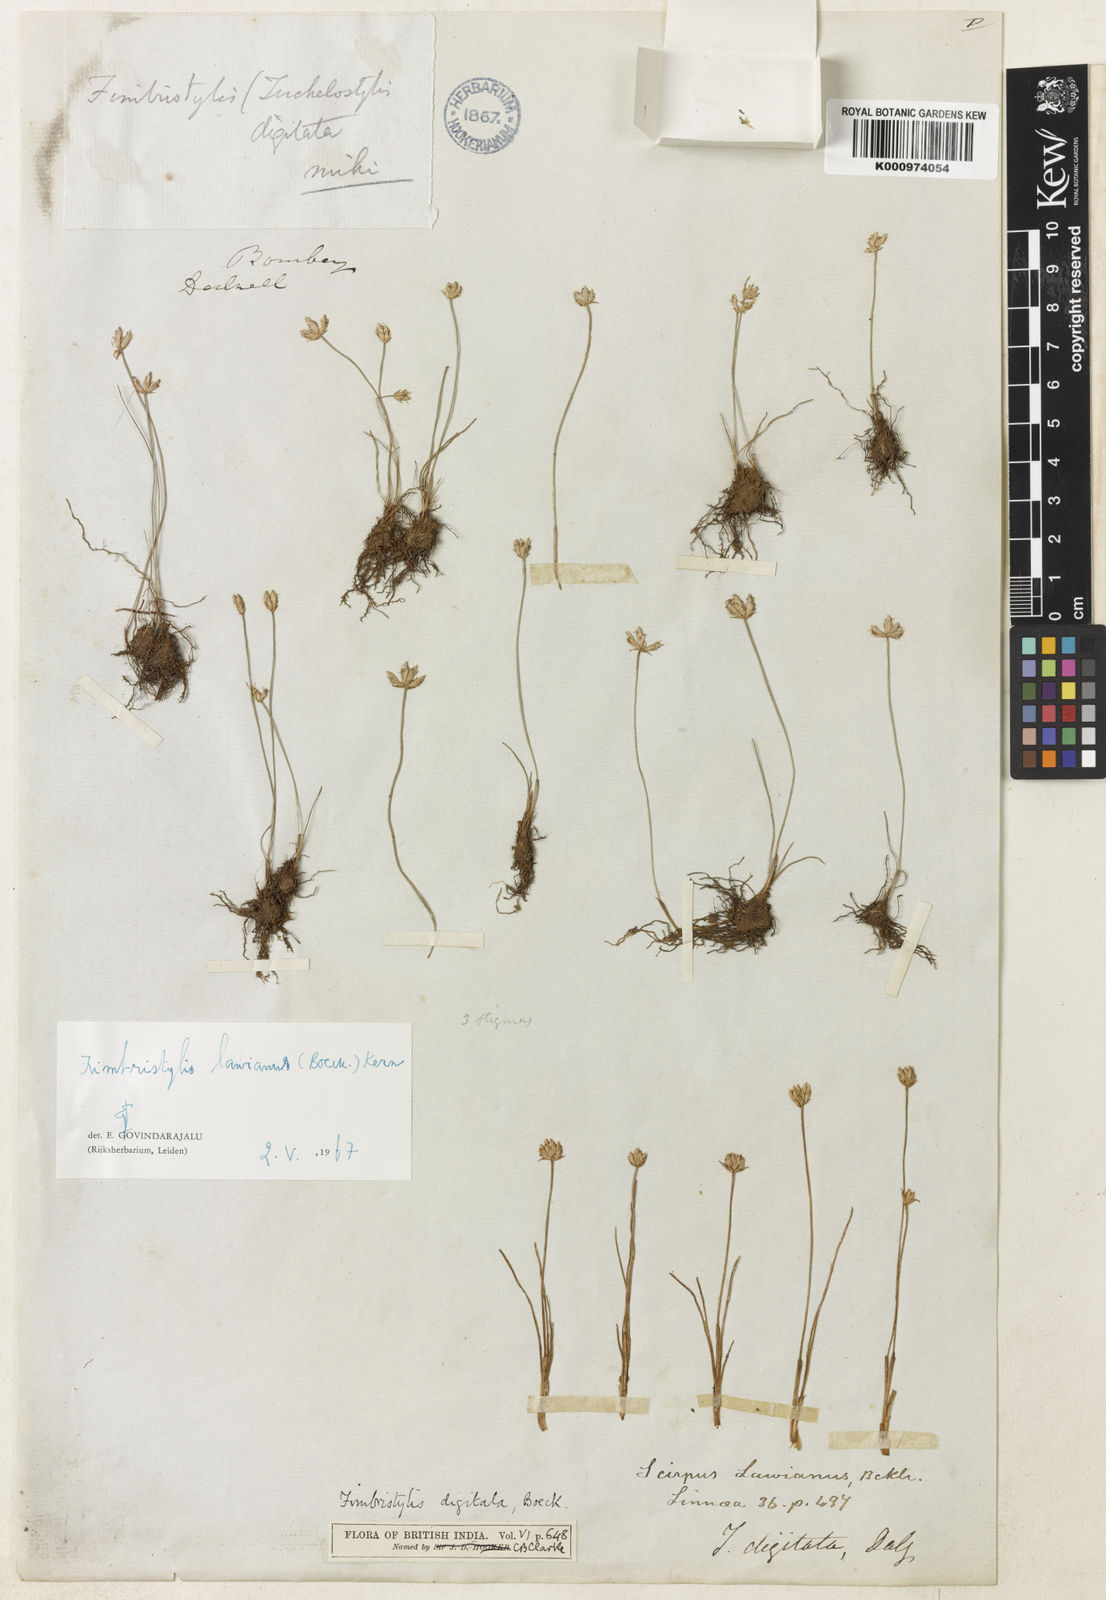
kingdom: Plantae
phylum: Tracheophyta
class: Liliopsida
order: Poales
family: Cyperaceae
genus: Fimbristylis
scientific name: Fimbristylis lawiana
